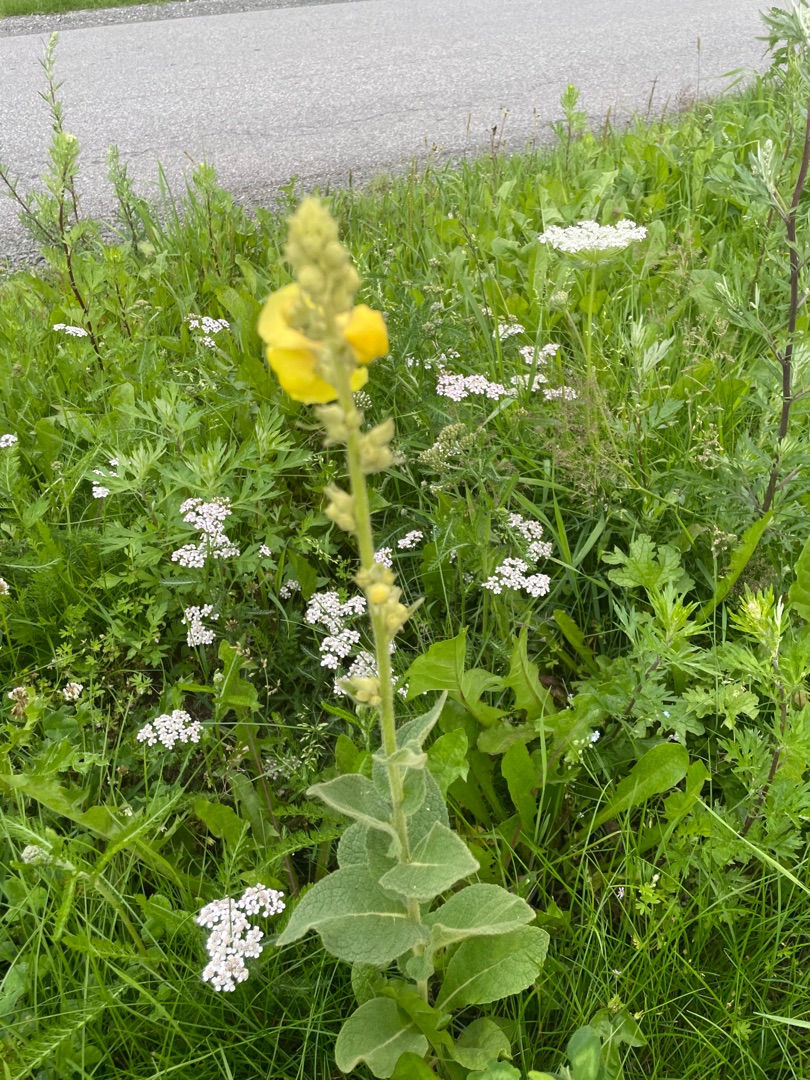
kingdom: Plantae
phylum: Tracheophyta
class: Magnoliopsida
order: Lamiales
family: Scrophulariaceae
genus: Verbascum
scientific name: Verbascum phlomoides
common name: Hjertebladet kongelys
